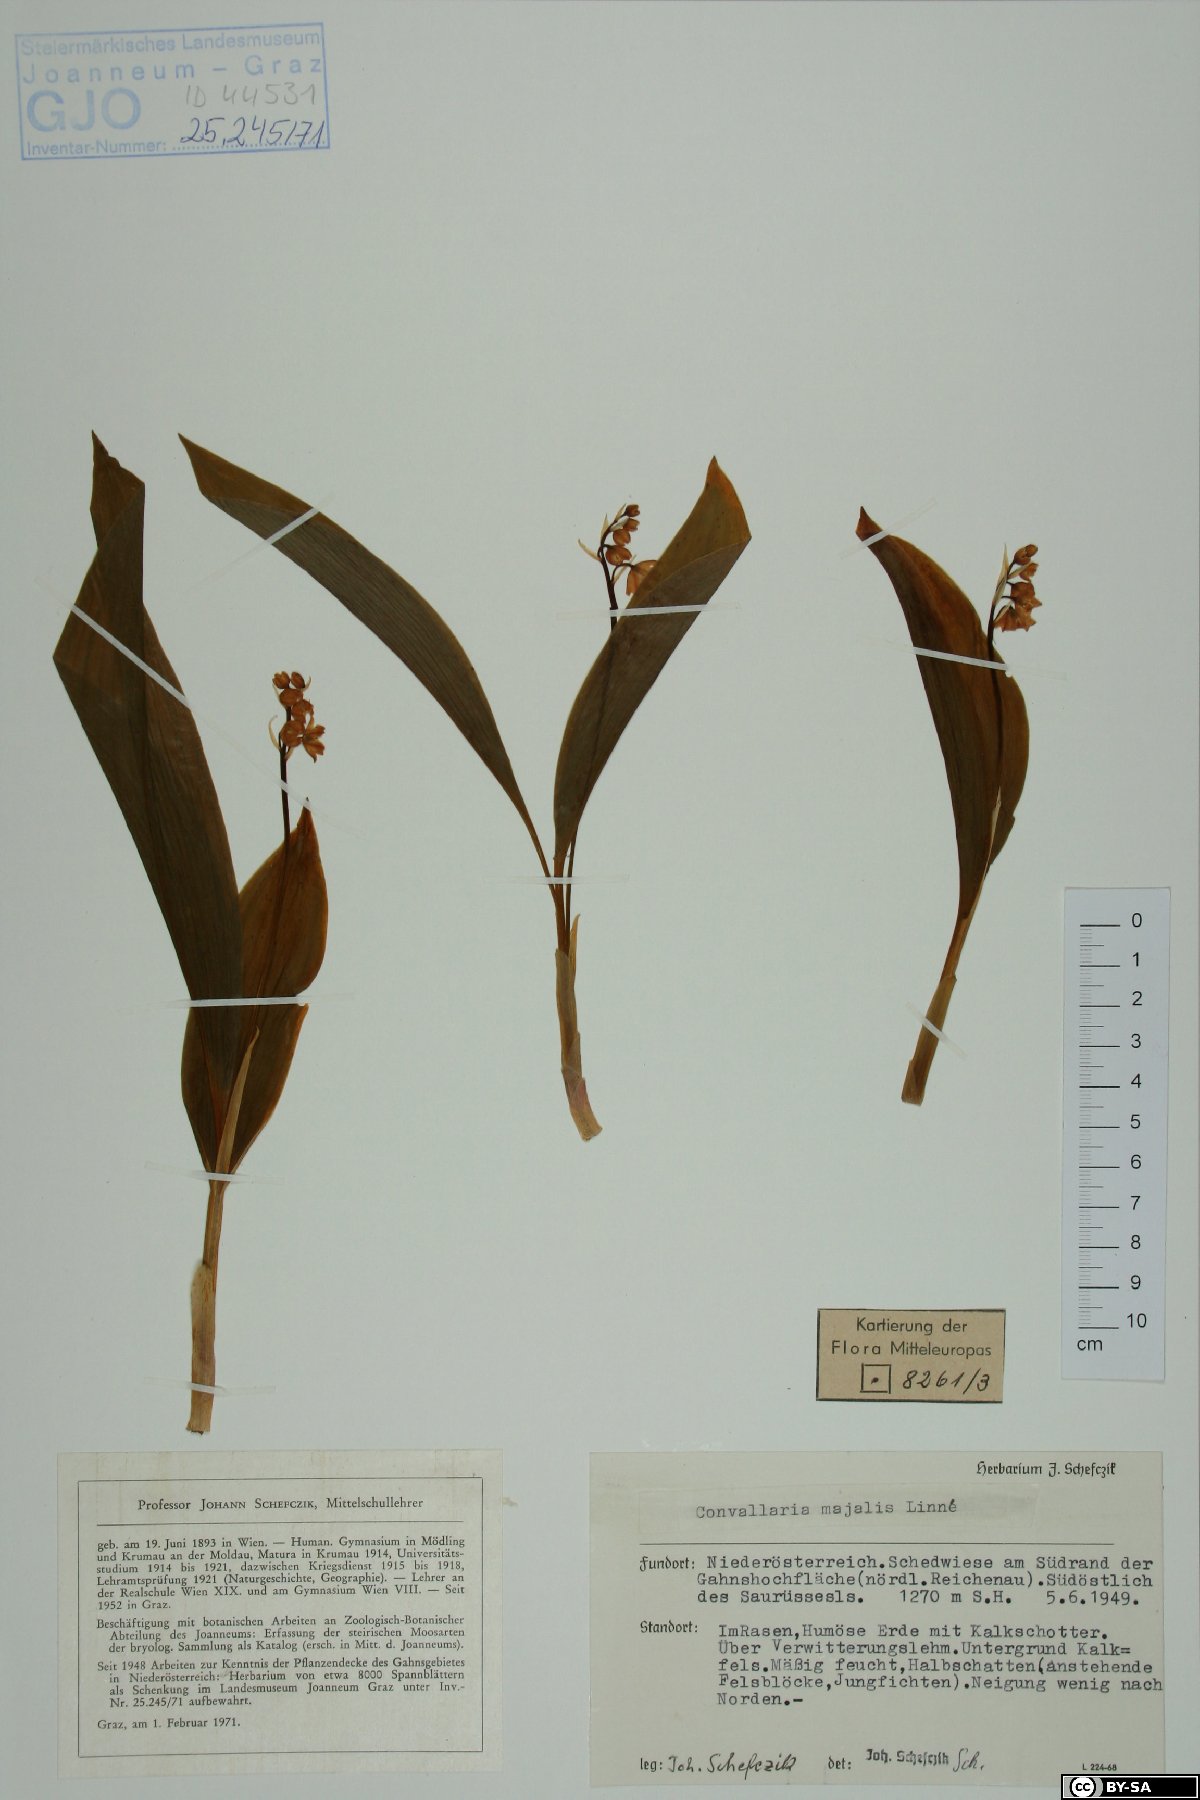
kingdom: Plantae
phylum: Tracheophyta
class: Liliopsida
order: Asparagales
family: Asparagaceae
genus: Convallaria
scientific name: Convallaria majalis
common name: Lily-of-the-valley
